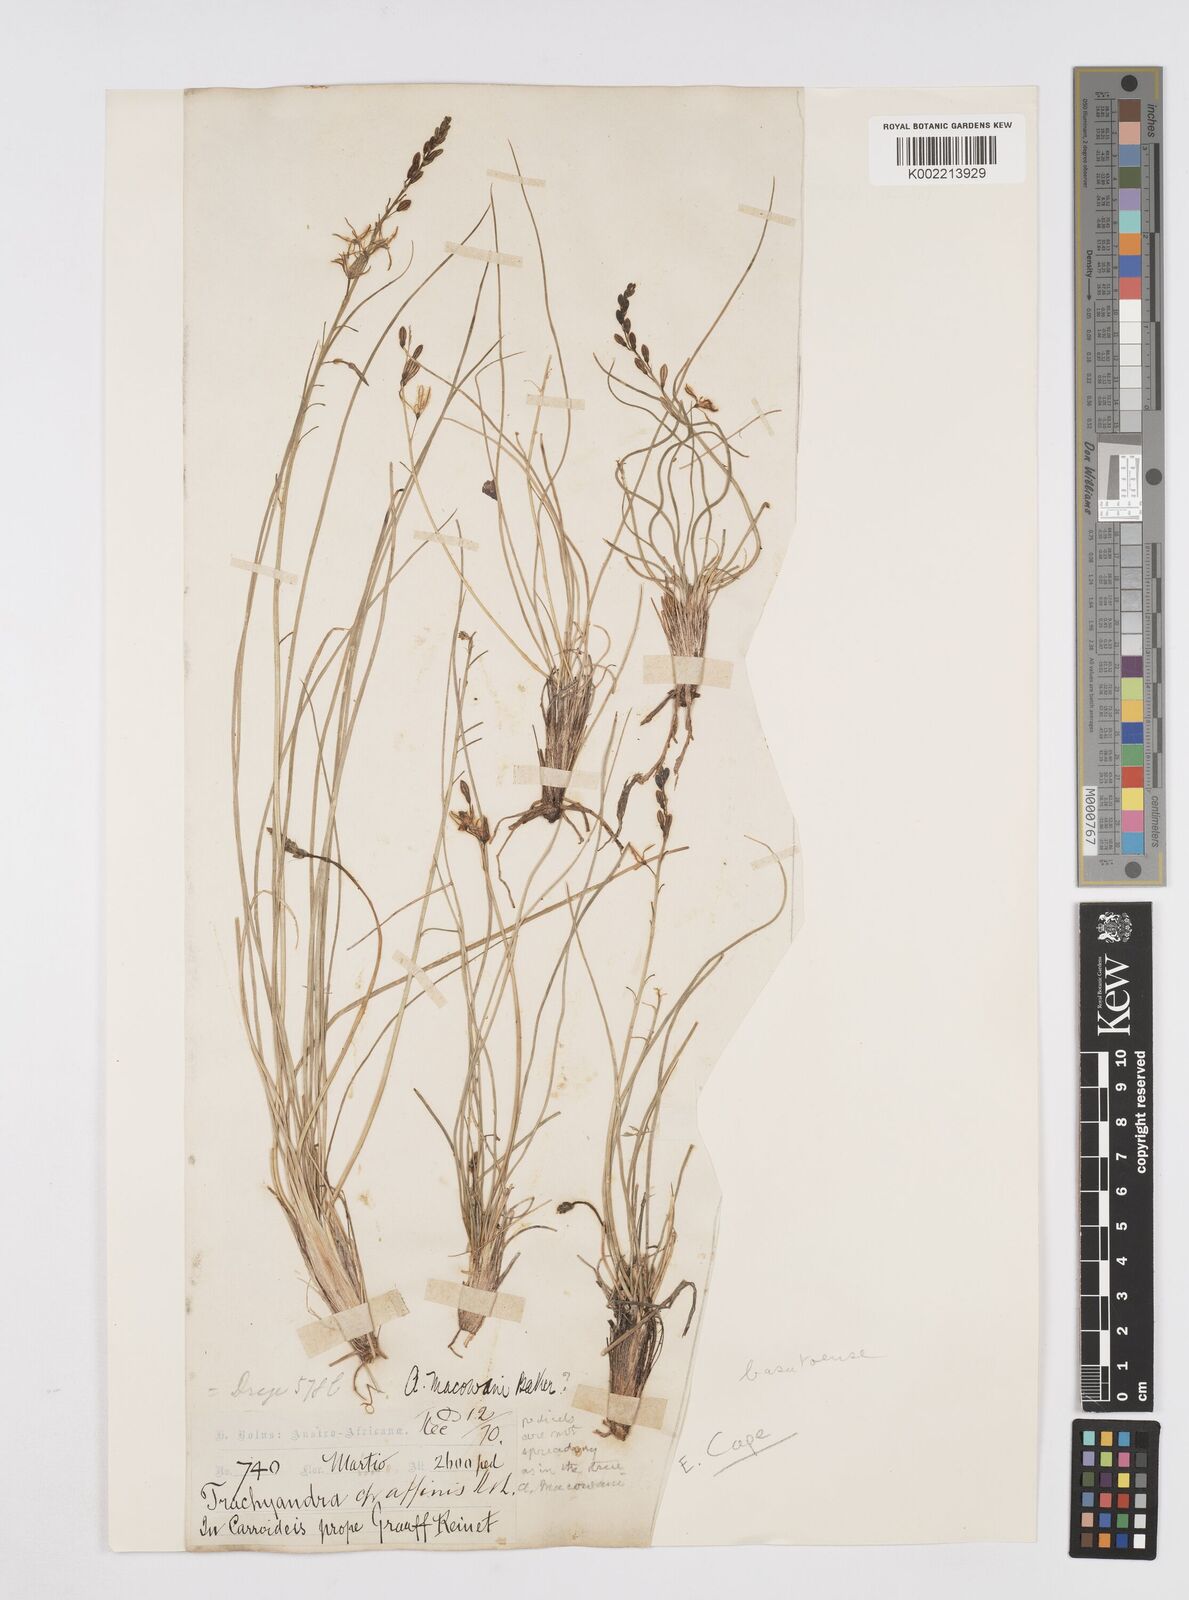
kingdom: Plantae
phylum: Tracheophyta
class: Liliopsida
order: Asparagales
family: Asphodelaceae
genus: Trachyandra
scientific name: Trachyandra asperata
